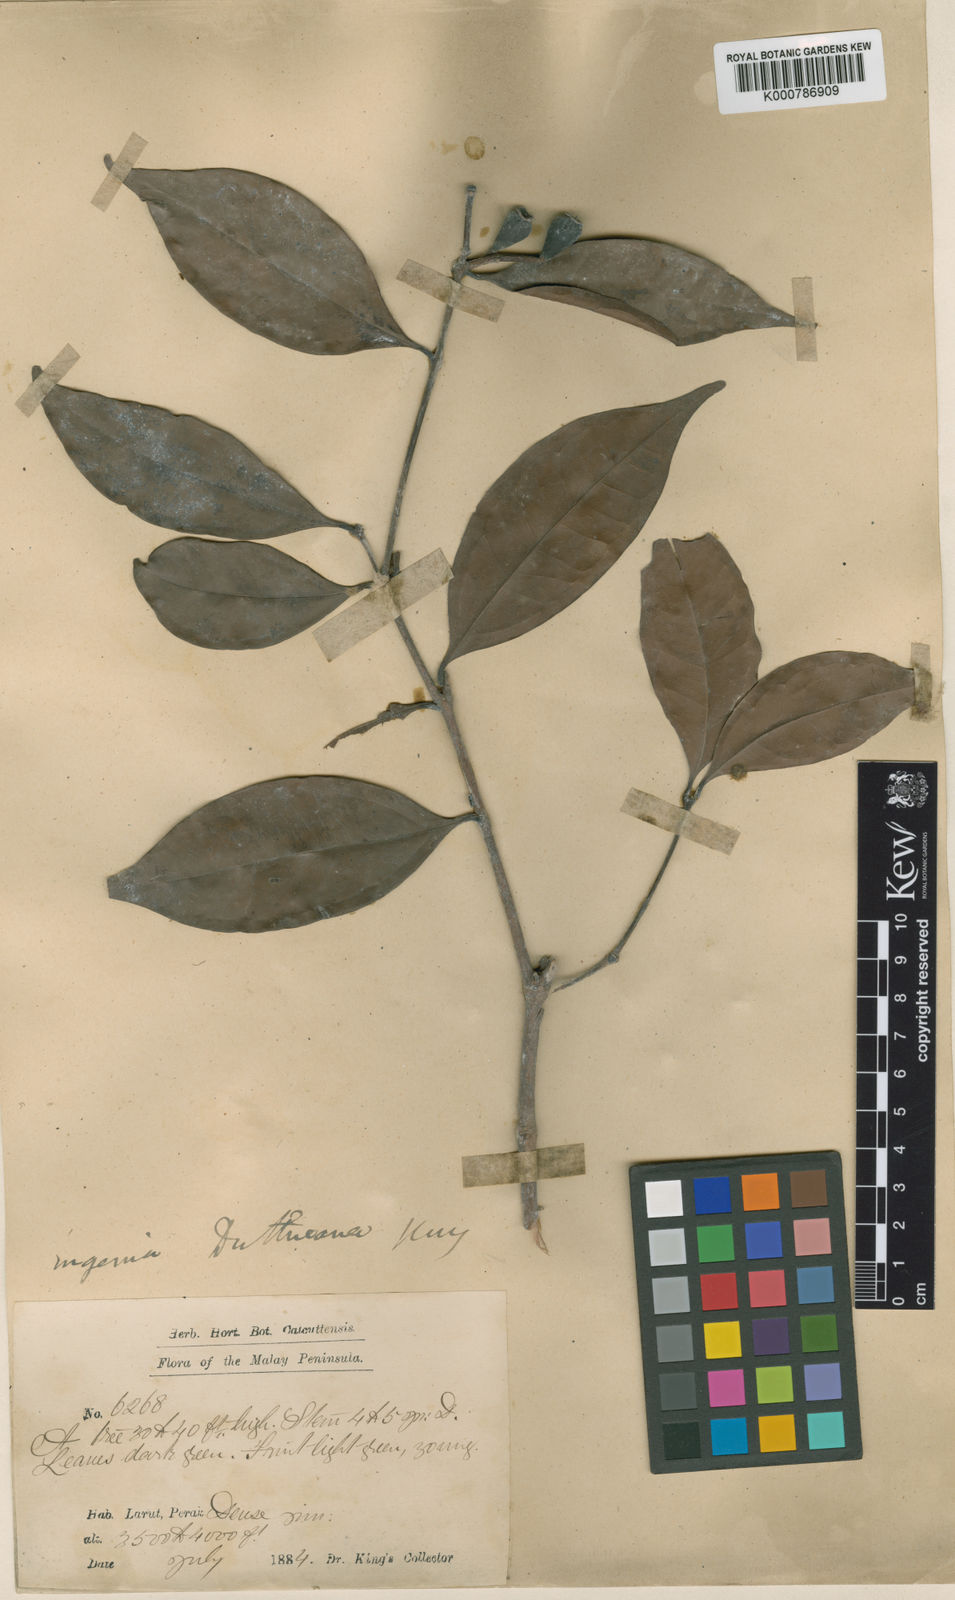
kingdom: Plantae
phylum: Tracheophyta
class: Magnoliopsida
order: Myrtales
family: Myrtaceae
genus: Syzygium
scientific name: Syzygium duthieanum
